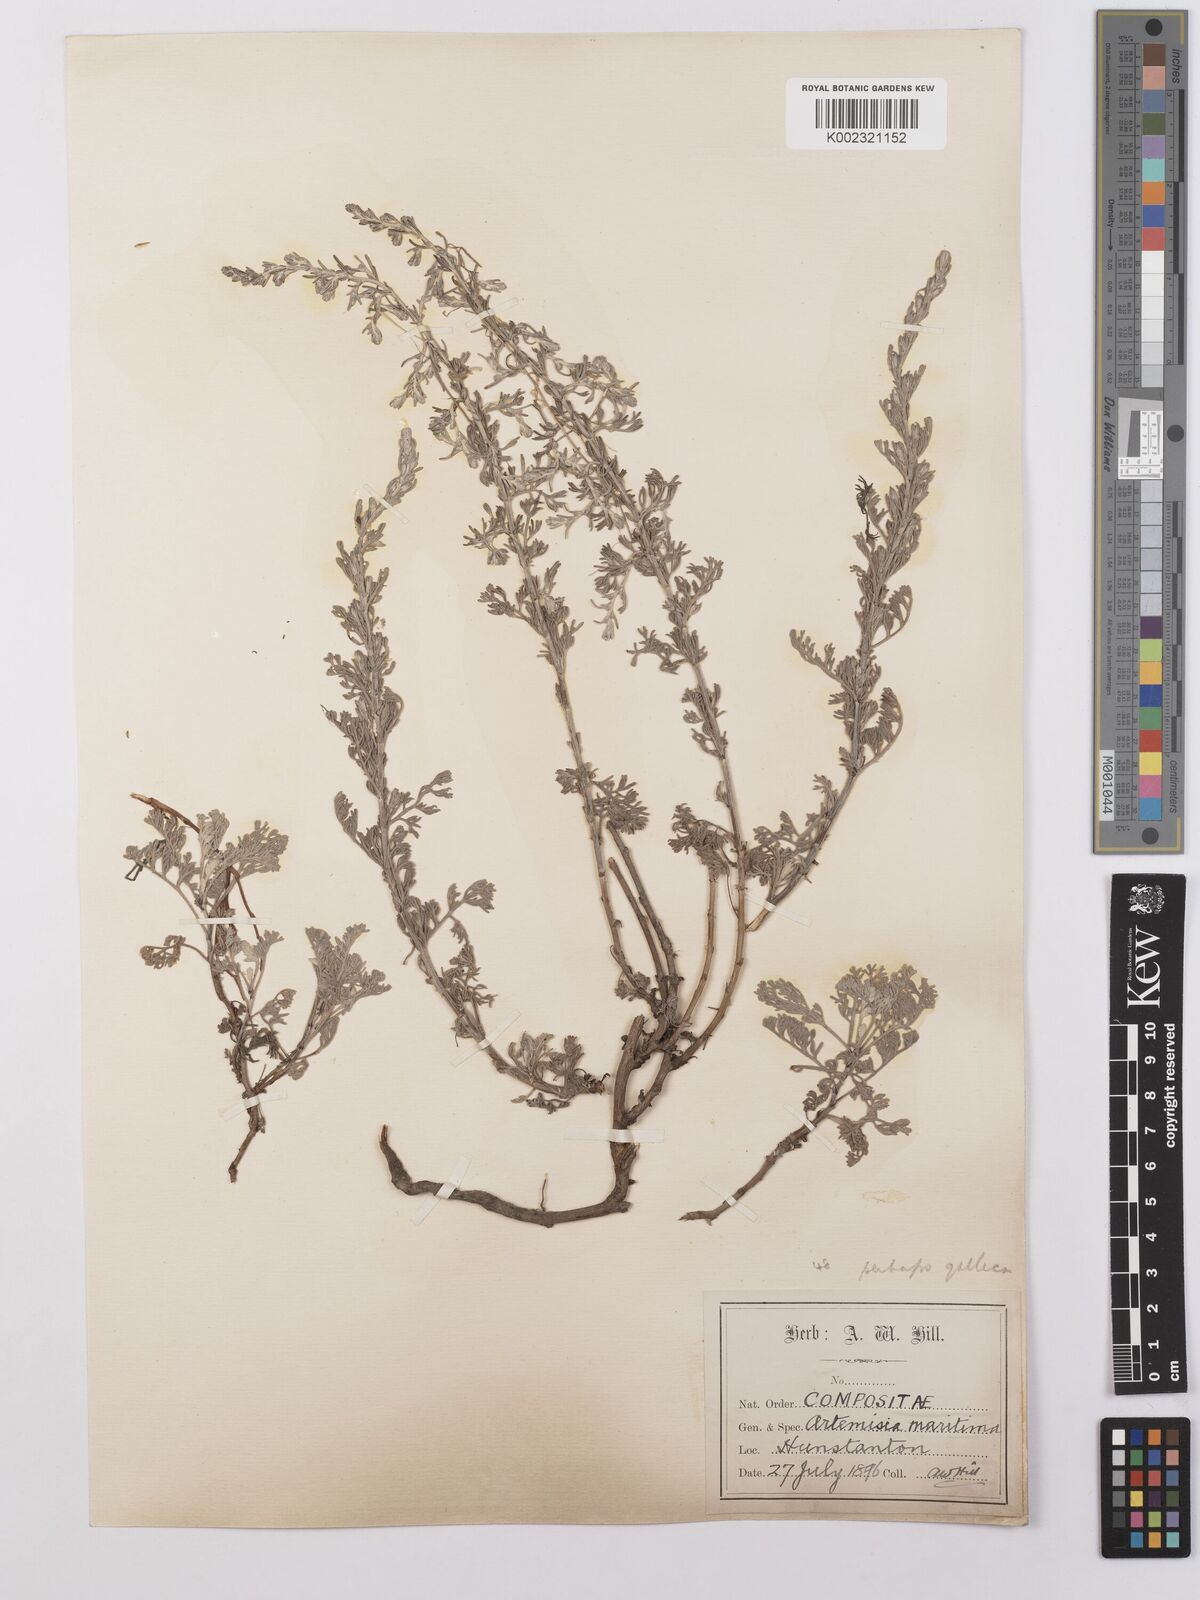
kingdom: Plantae
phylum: Tracheophyta
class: Magnoliopsida
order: Asterales
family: Asteraceae
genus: Artemisia
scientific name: Artemisia maritima
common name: Wormseed
